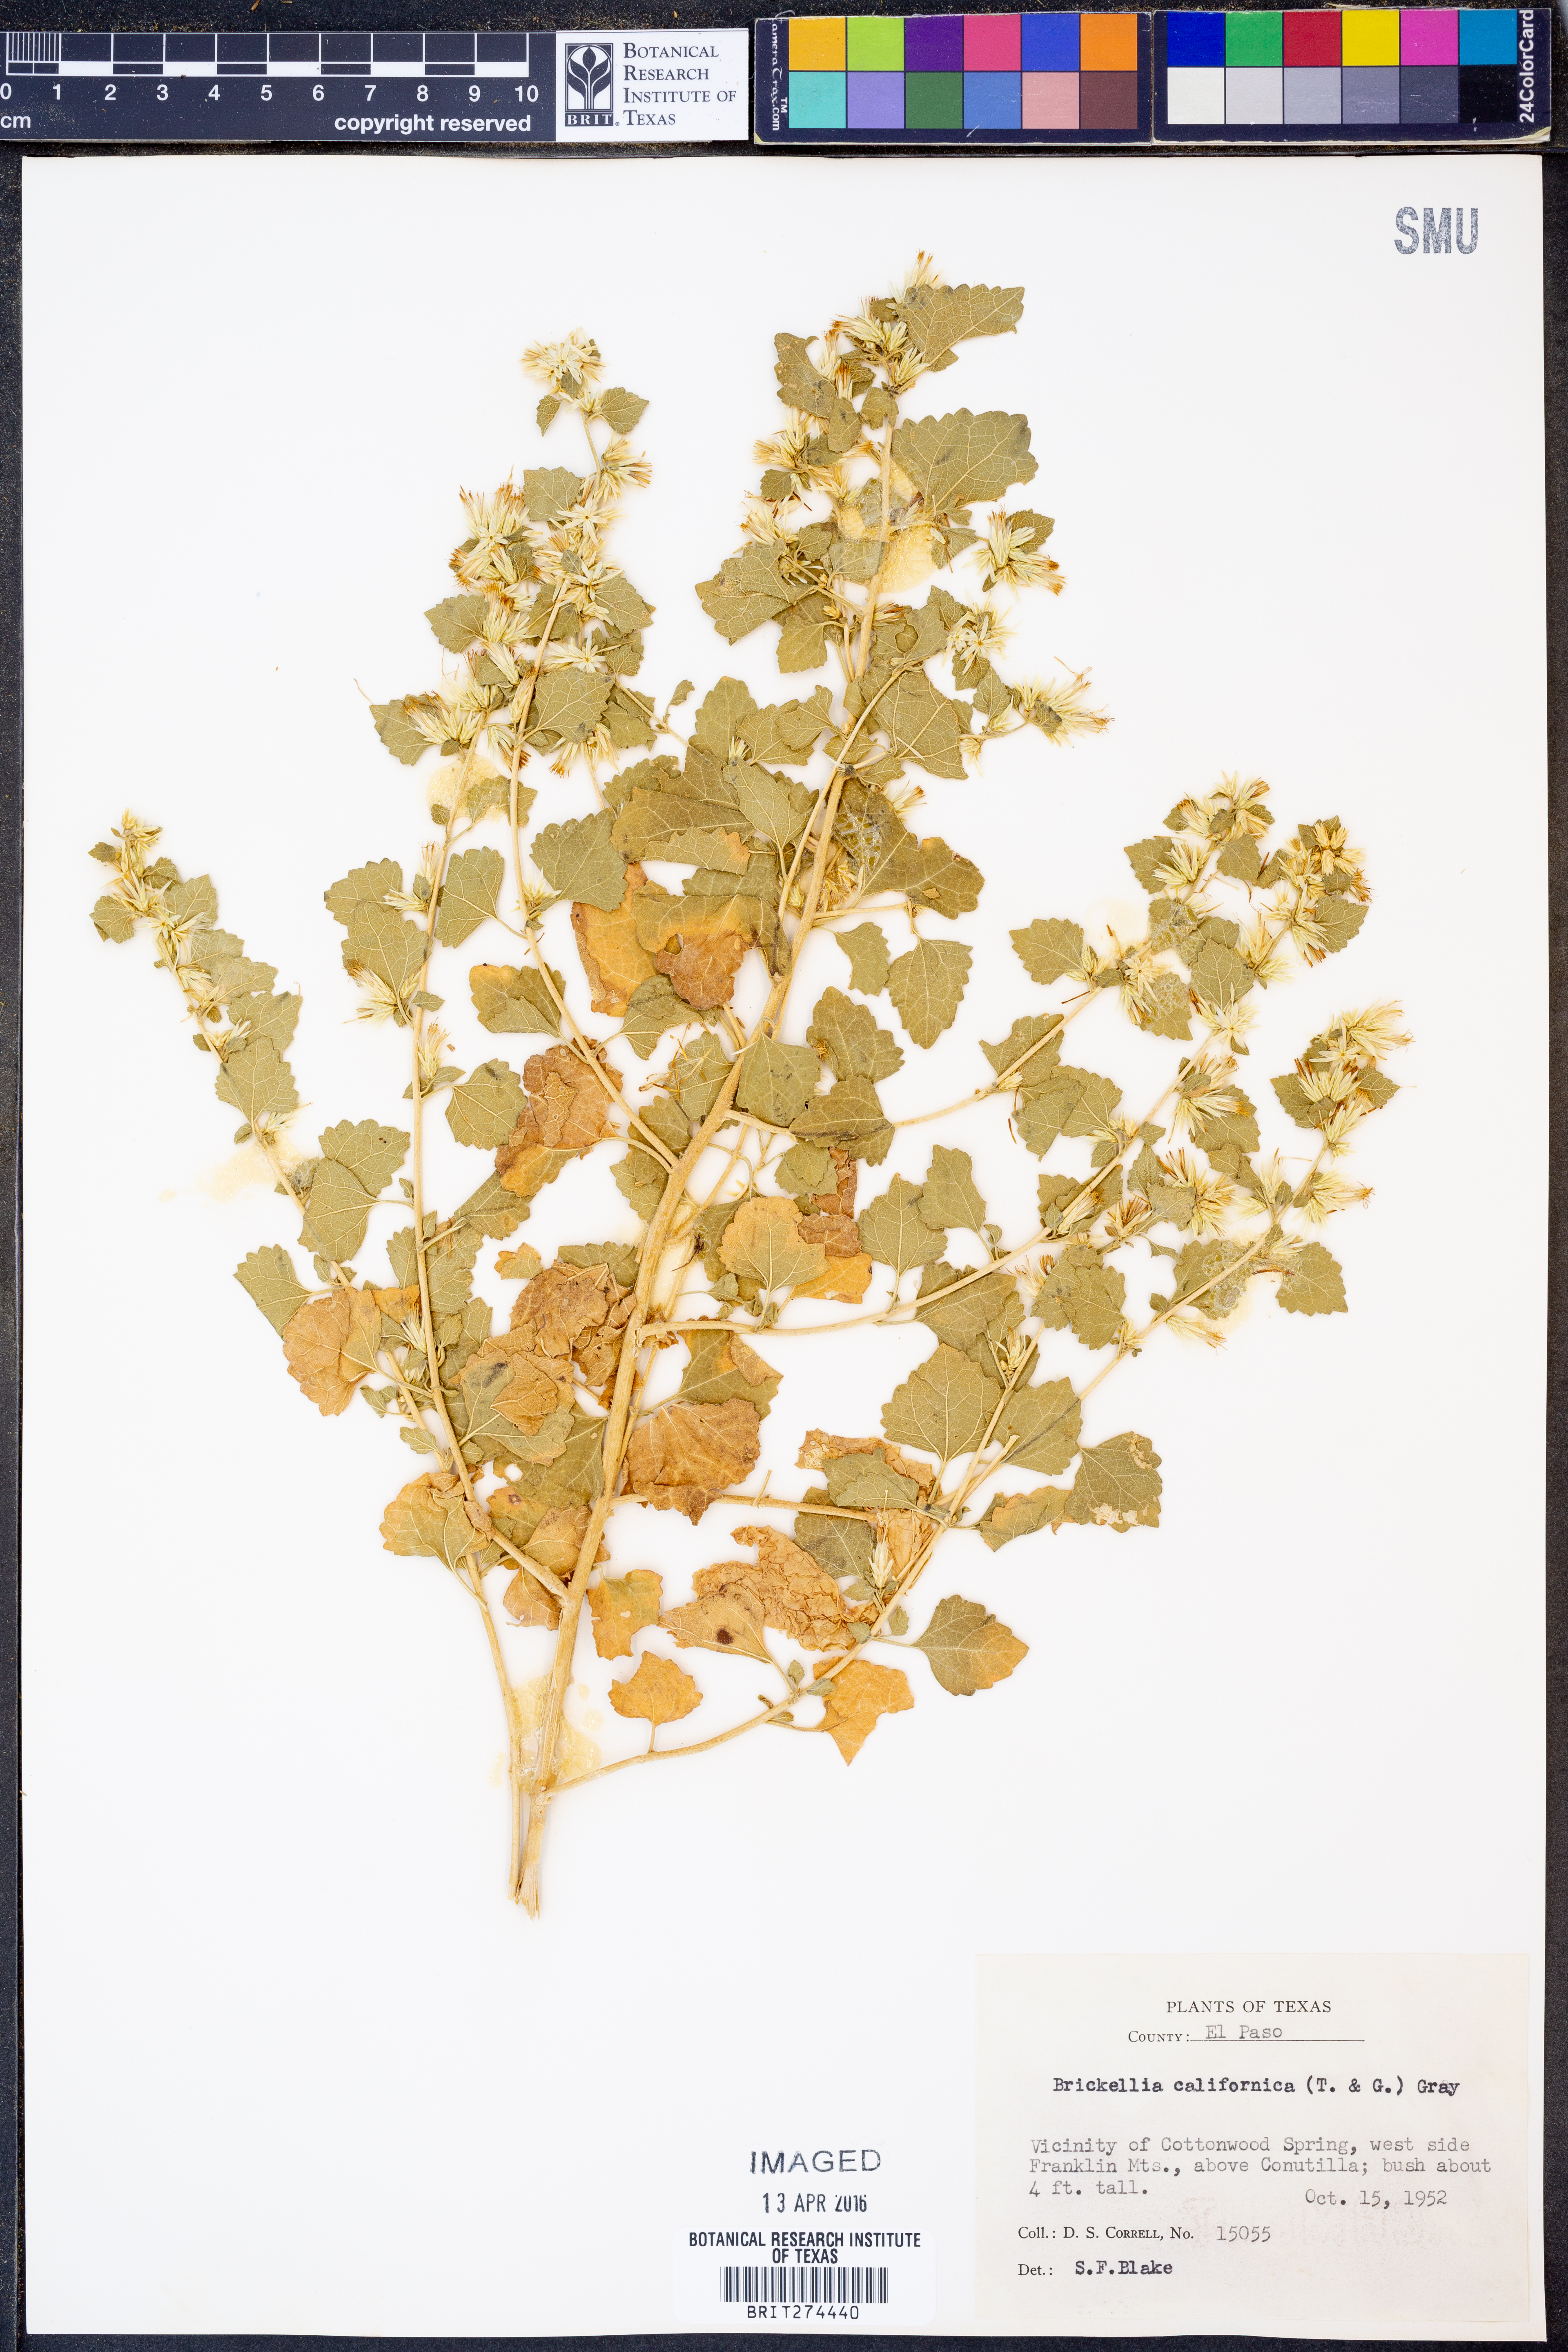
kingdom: Plantae
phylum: Tracheophyta
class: Magnoliopsida
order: Asterales
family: Asteraceae
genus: Brickellia
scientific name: Brickellia californica
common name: California brickellbush
